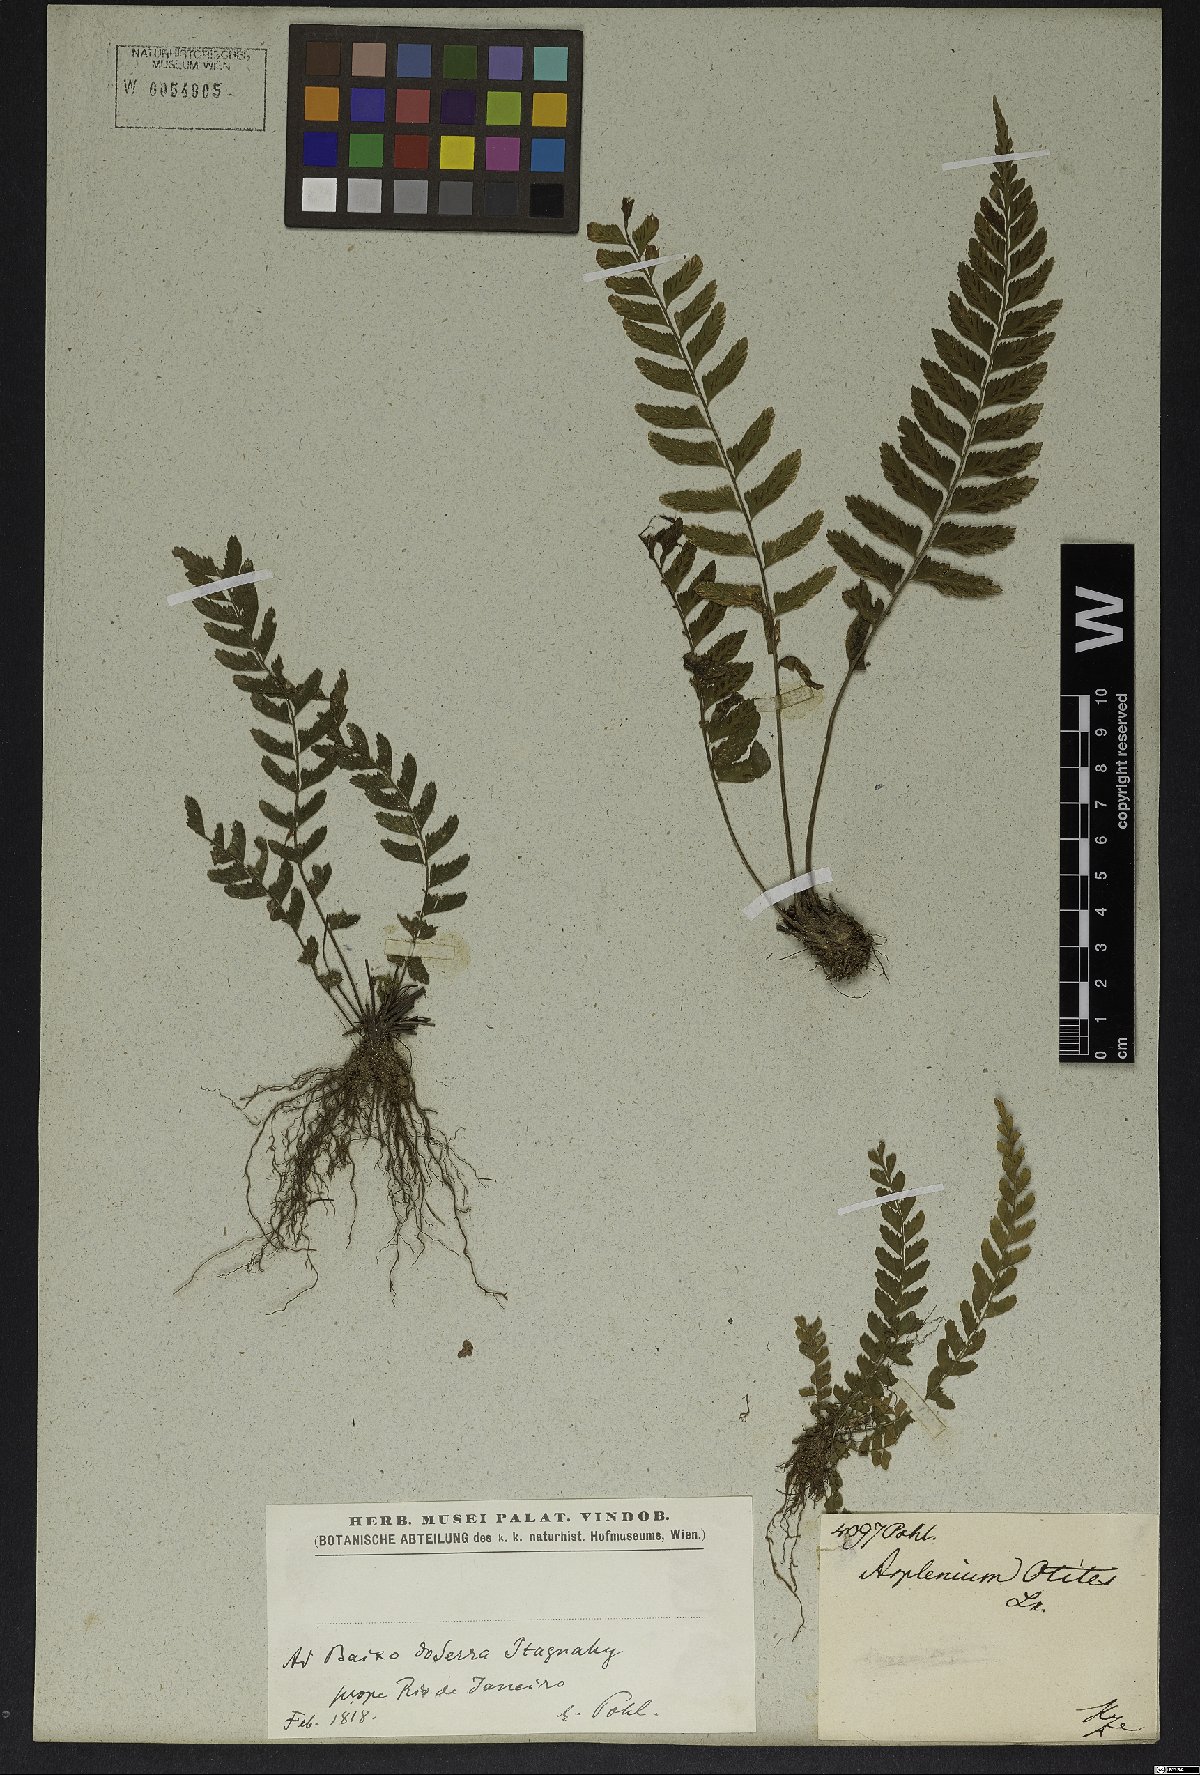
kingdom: Plantae
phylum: Tracheophyta
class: Polypodiopsida
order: Polypodiales
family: Aspleniaceae
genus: Asplenium
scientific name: Asplenium pulchellum
